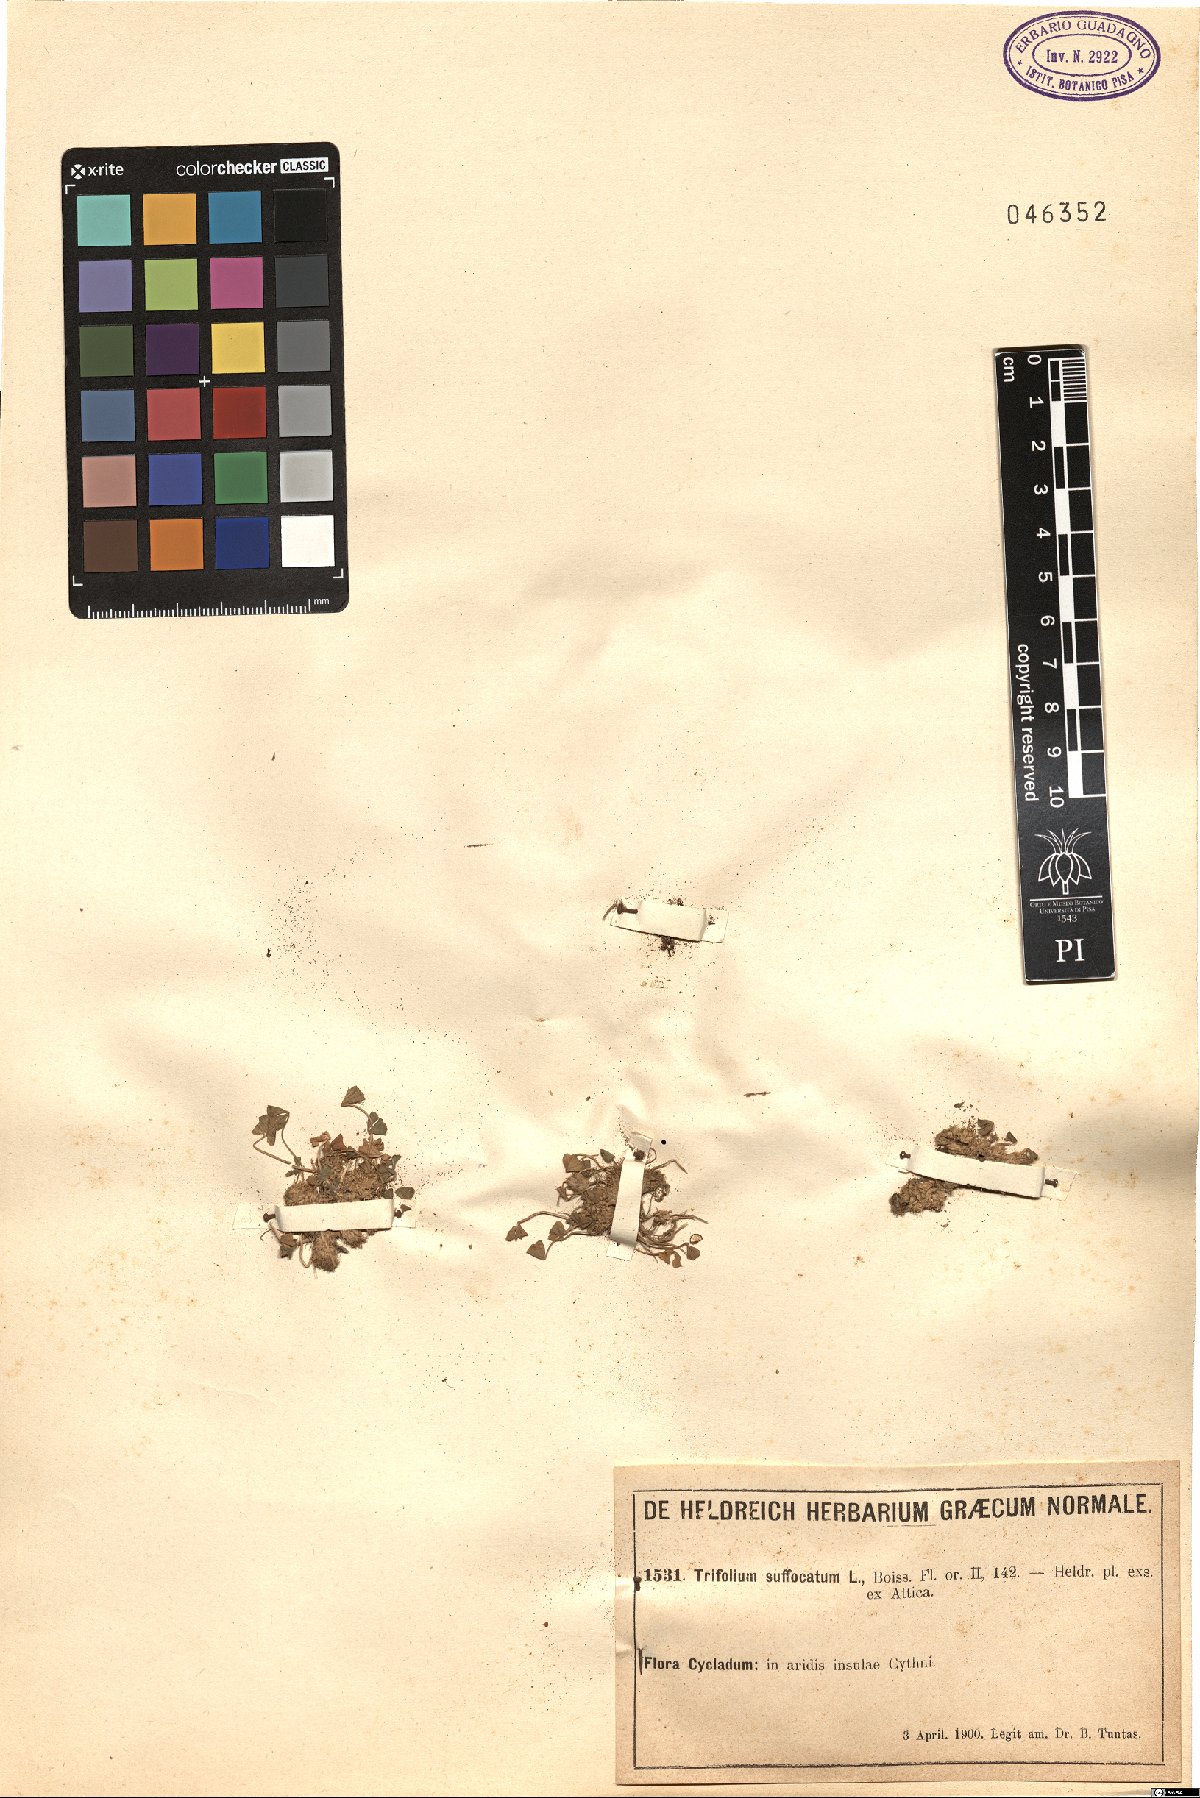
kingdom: Plantae
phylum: Tracheophyta
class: Magnoliopsida
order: Fabales
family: Fabaceae
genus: Trifolium
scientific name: Trifolium suffocatum
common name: Suffocated clover
